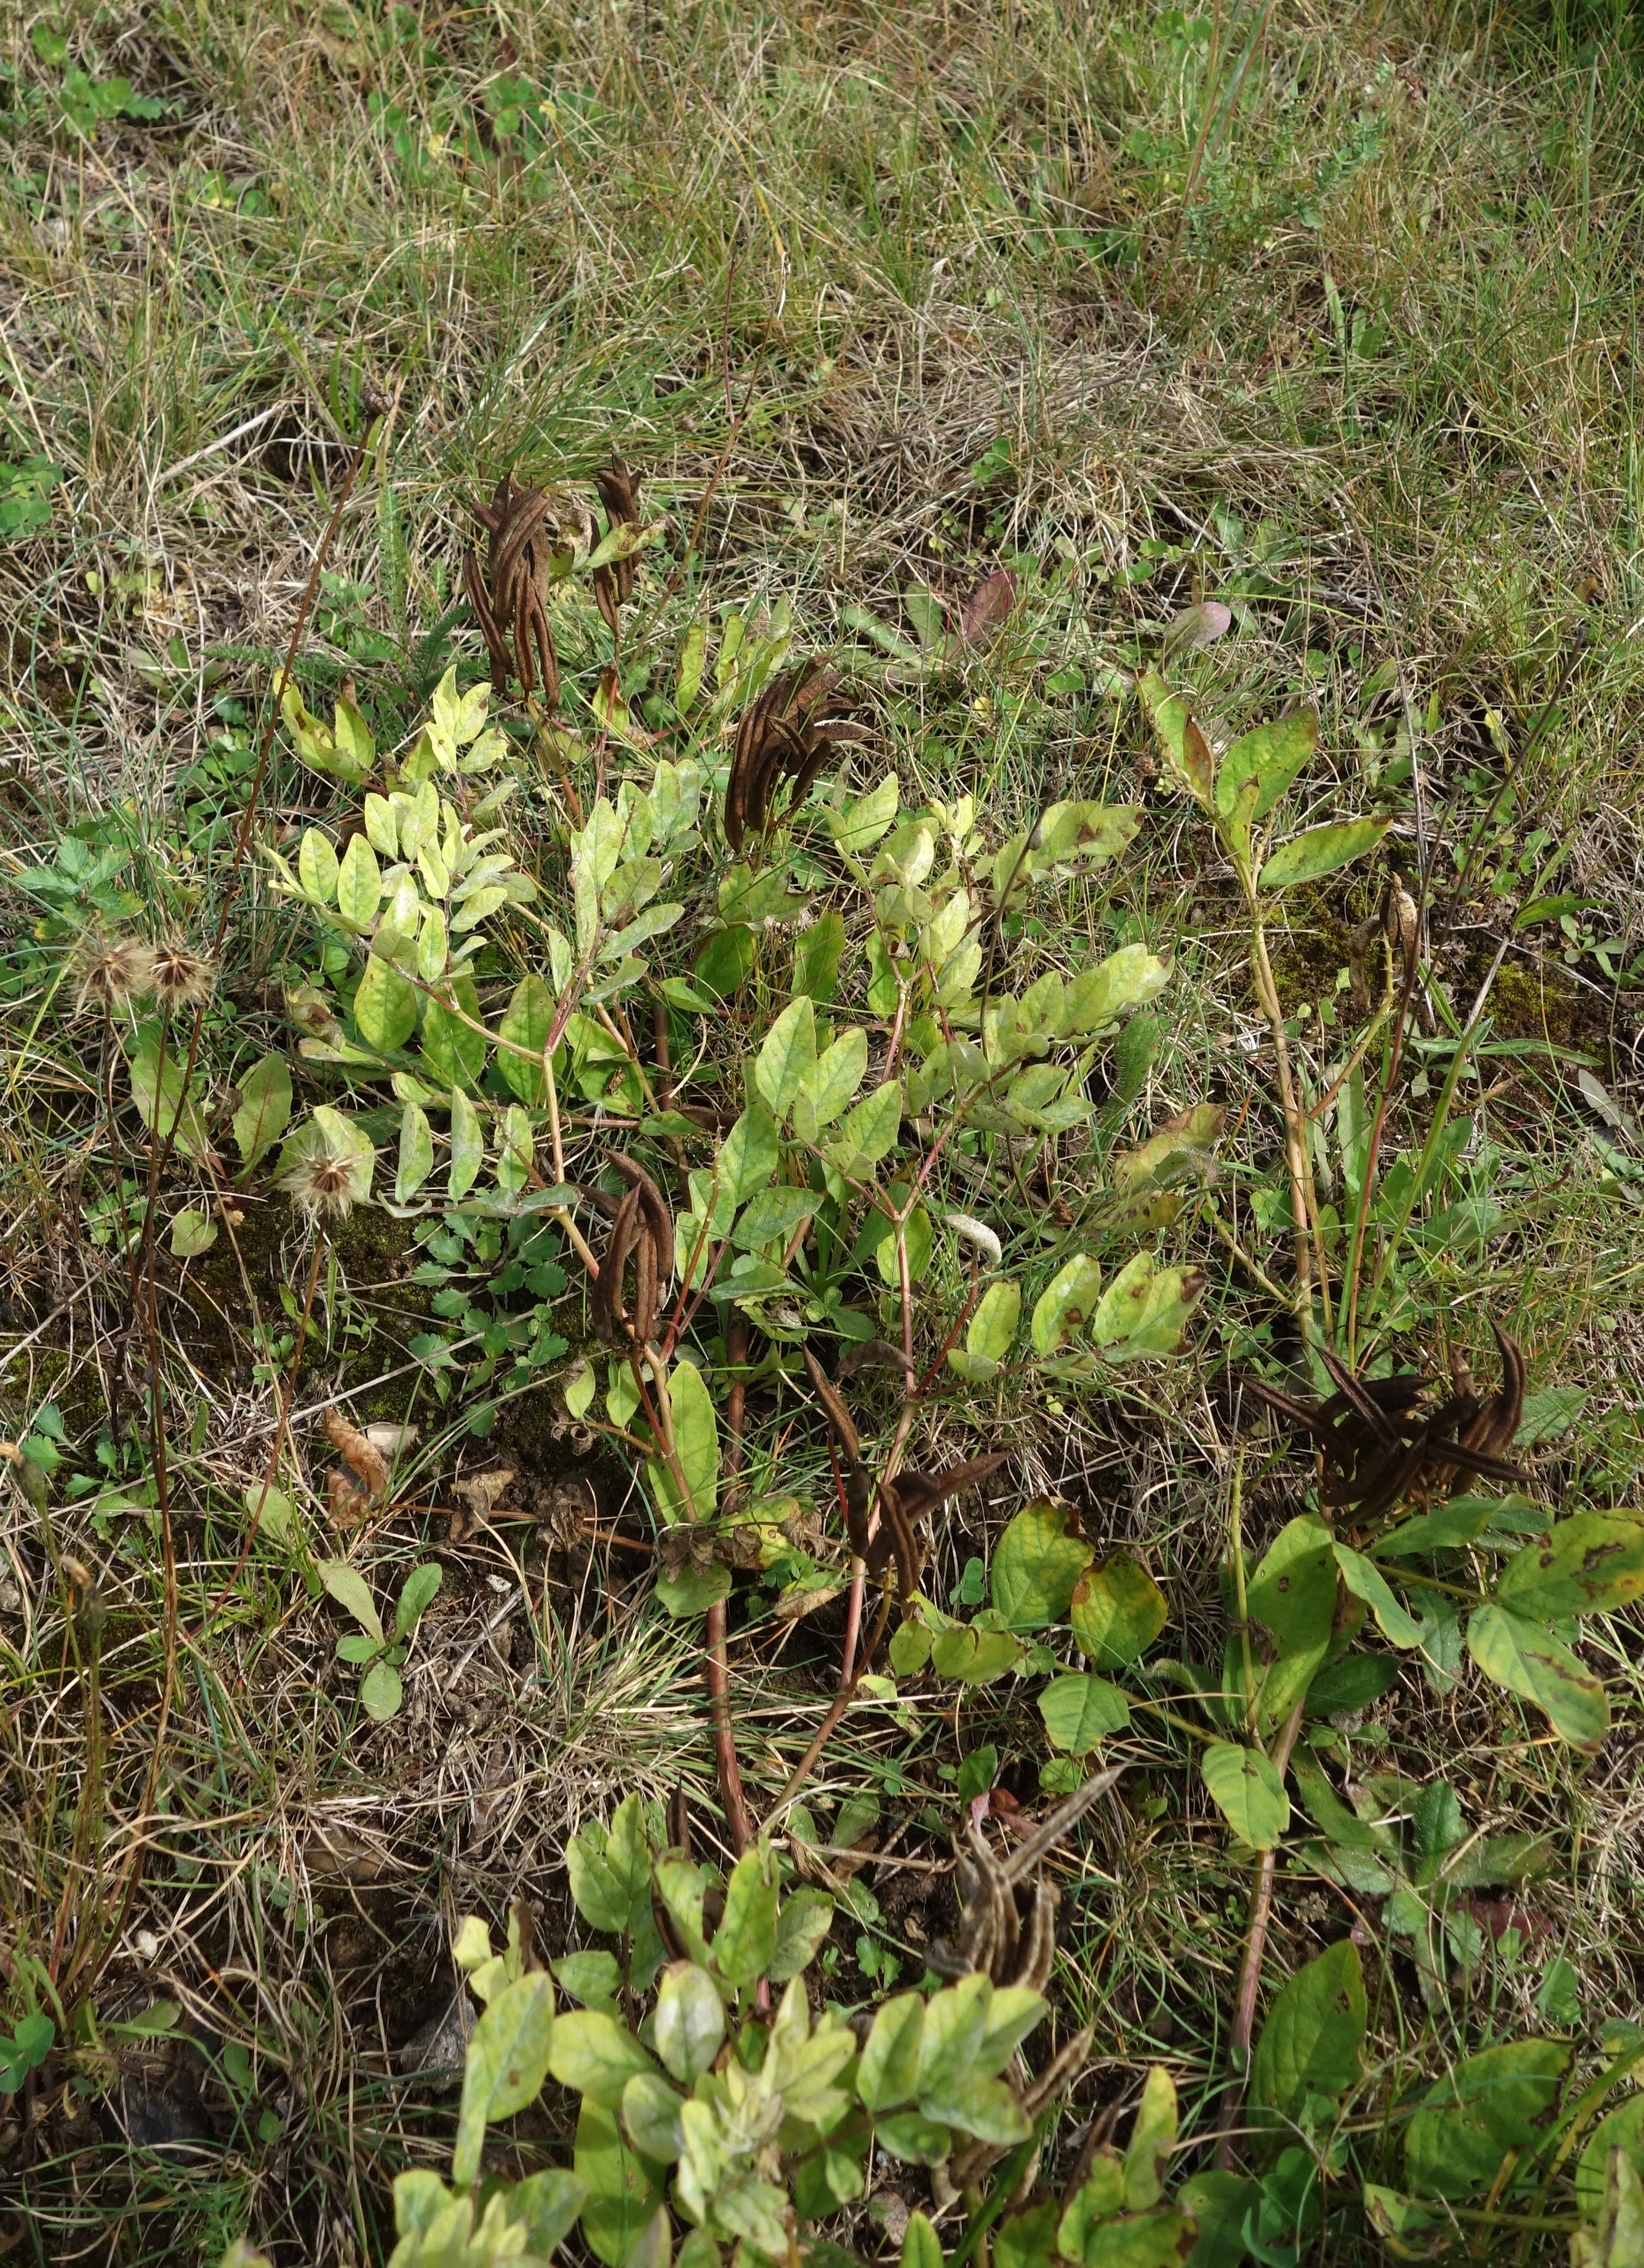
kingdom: Plantae
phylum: Tracheophyta
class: Magnoliopsida
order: Fabales
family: Fabaceae
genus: Astragalus
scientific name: Astragalus glycyphyllos
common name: Sød astragel
